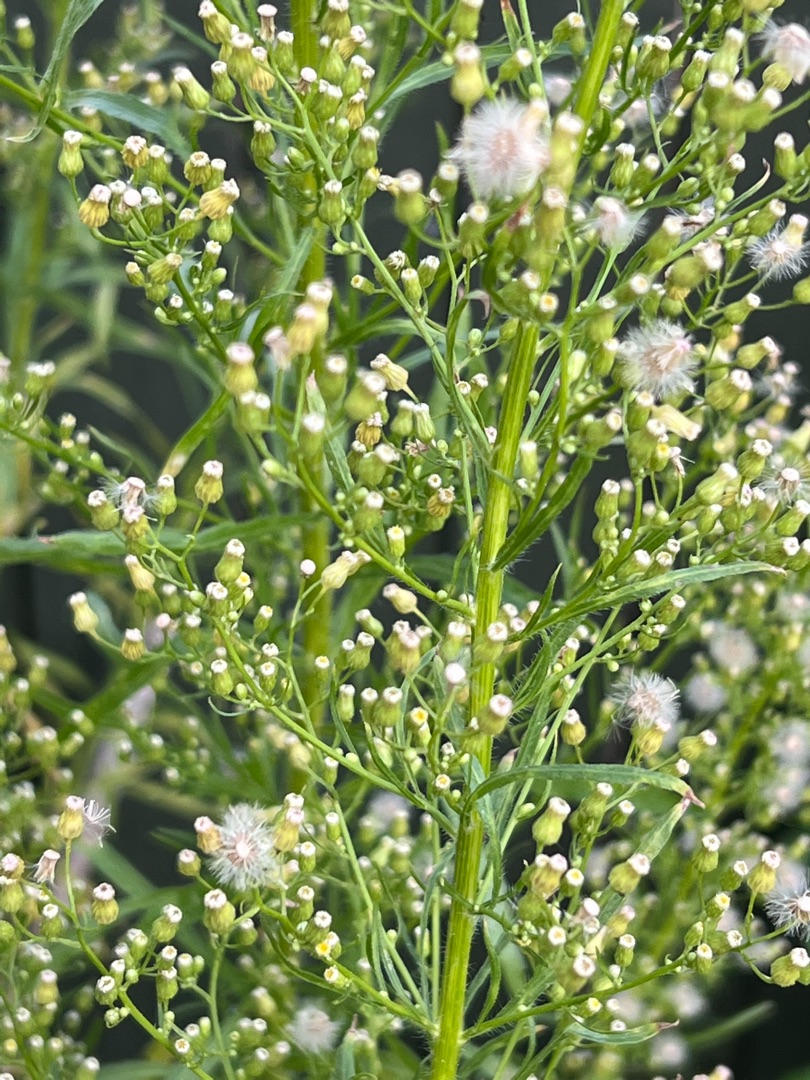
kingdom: Plantae
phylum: Tracheophyta
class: Magnoliopsida
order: Asterales
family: Asteraceae
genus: Erigeron
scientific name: Erigeron canadensis
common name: Kanadisk bakkestjerne
